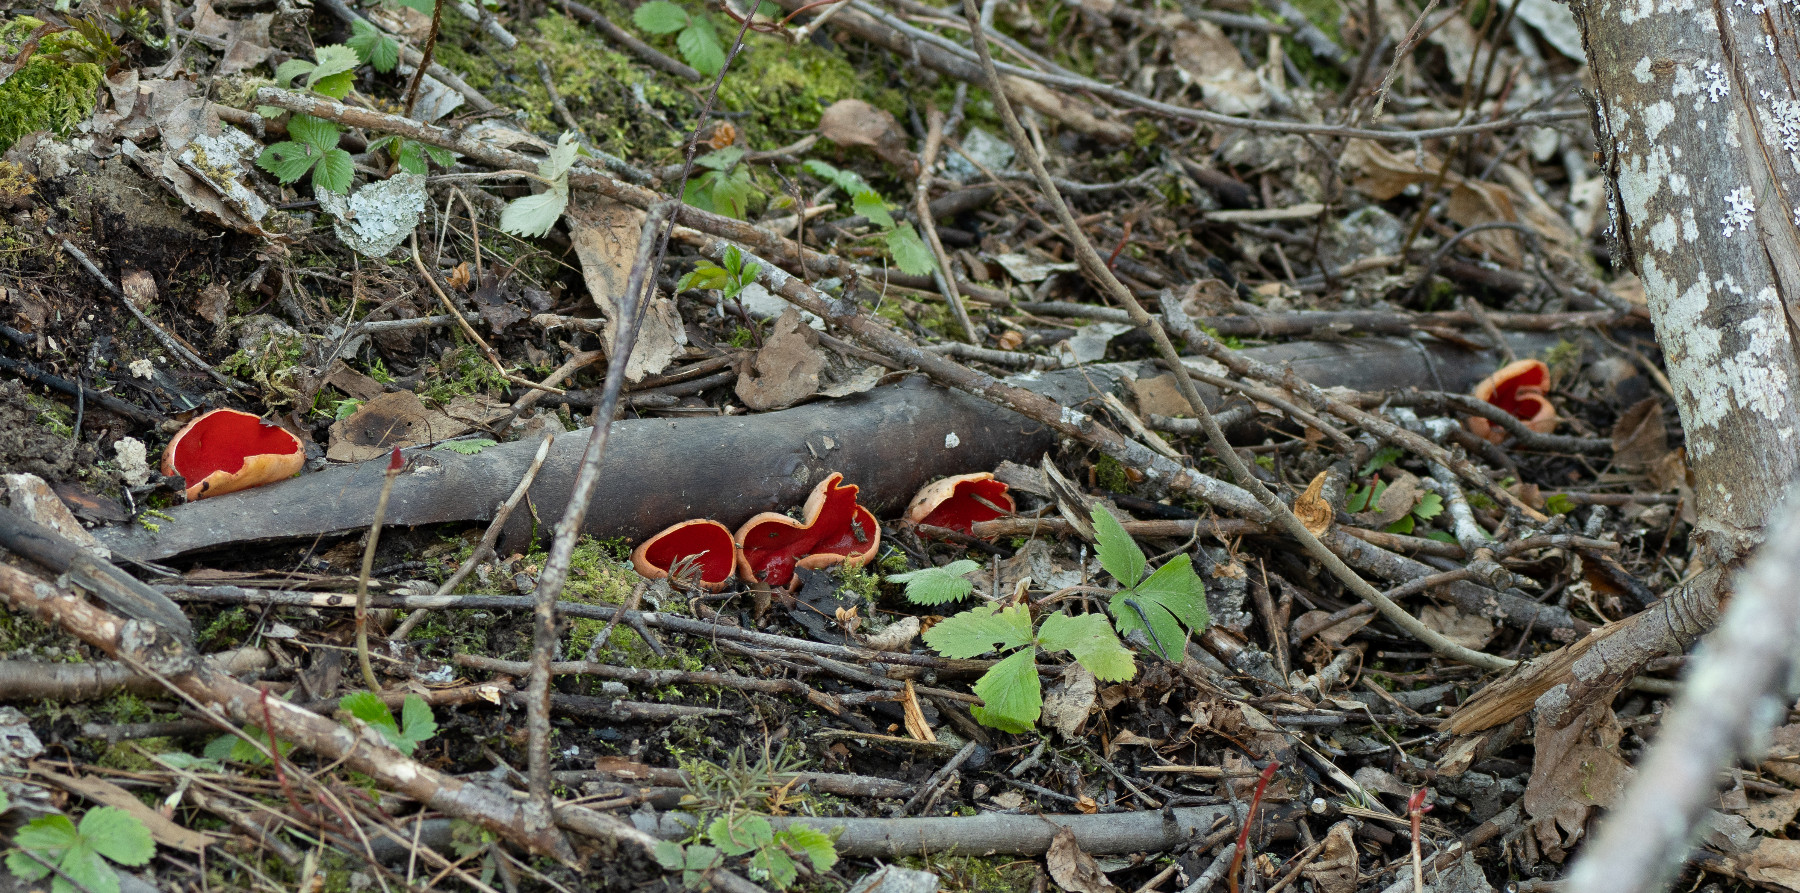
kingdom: Fungi
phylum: Ascomycota
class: Pezizomycetes
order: Pezizales
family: Sarcoscyphaceae
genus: Sarcoscypha
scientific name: Sarcoscypha
